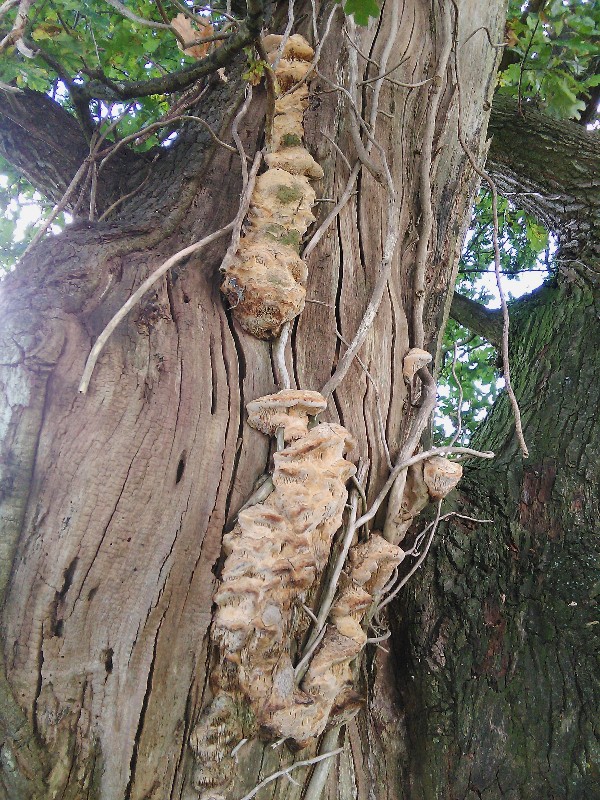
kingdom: Fungi
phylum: Basidiomycota
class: Agaricomycetes
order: Polyporales
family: Fomitopsidaceae
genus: Daedalea
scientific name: Daedalea quercina
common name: ege-labyrintsvamp
